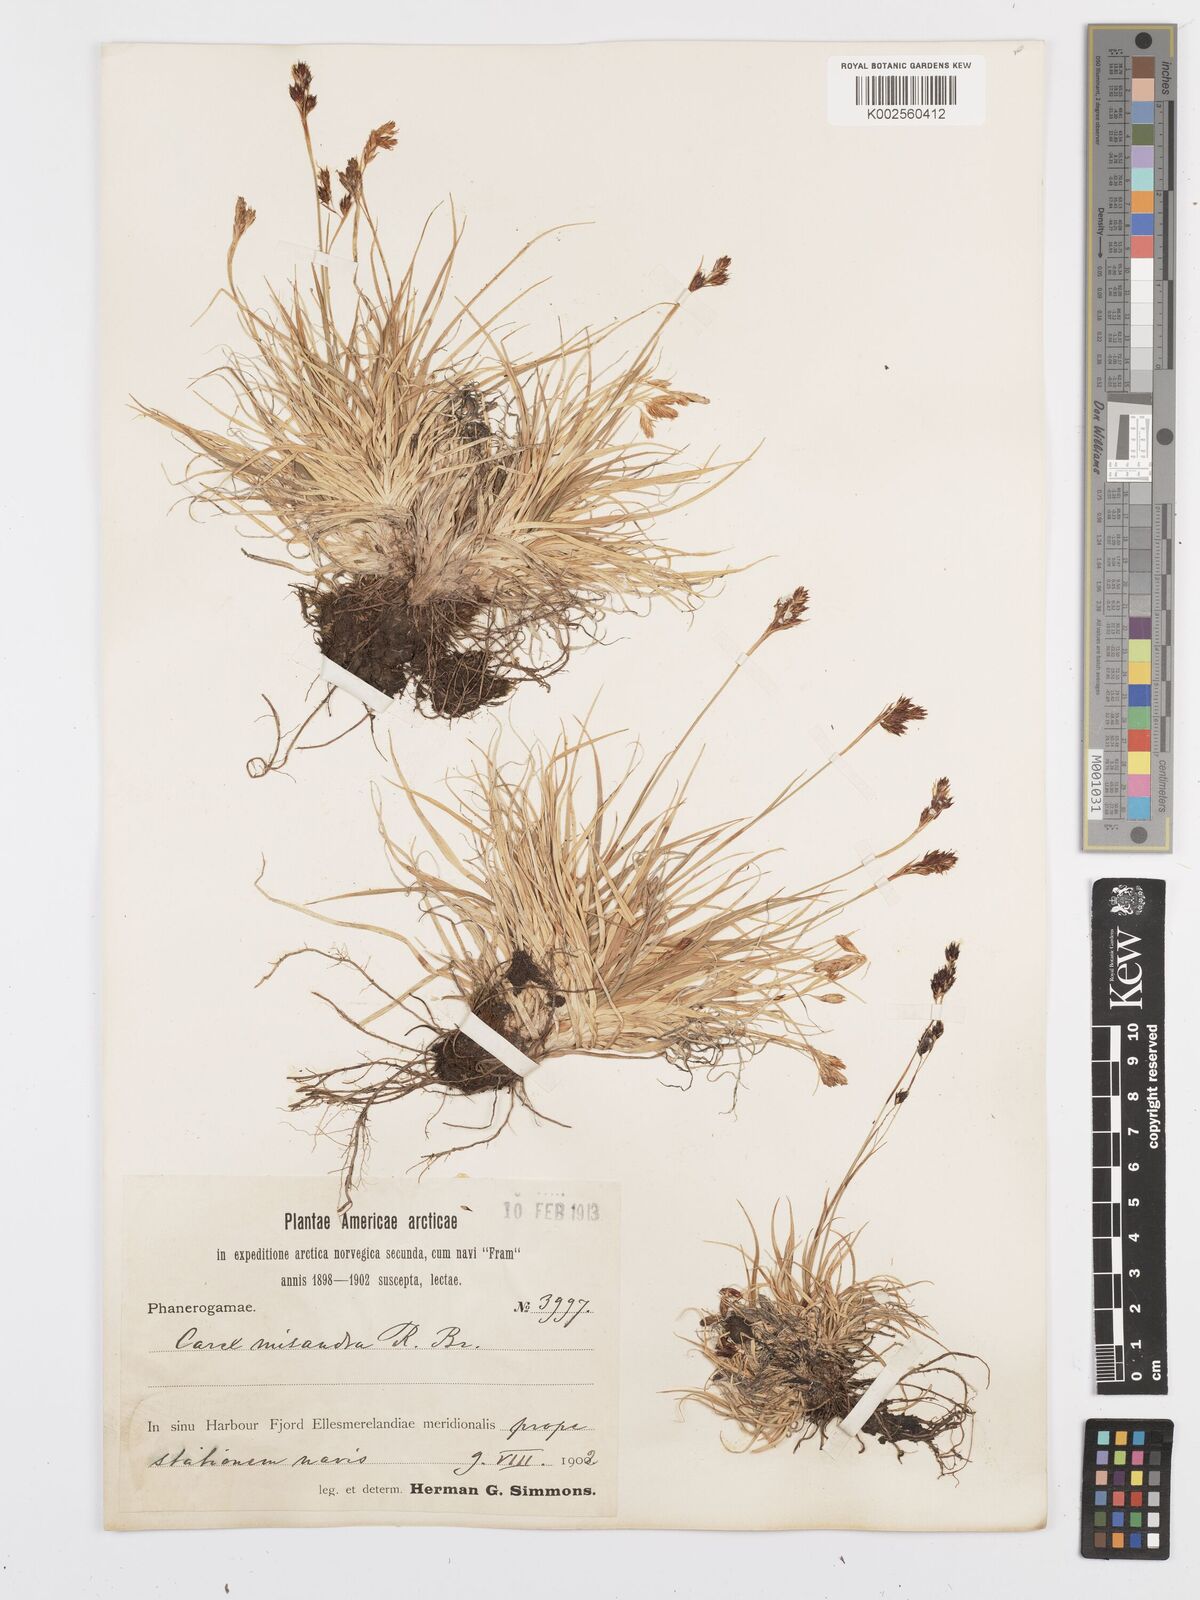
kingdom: Plantae
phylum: Tracheophyta
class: Liliopsida
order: Poales
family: Cyperaceae
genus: Carex
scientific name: Carex fuliginosa
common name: Few-flowered sedge
